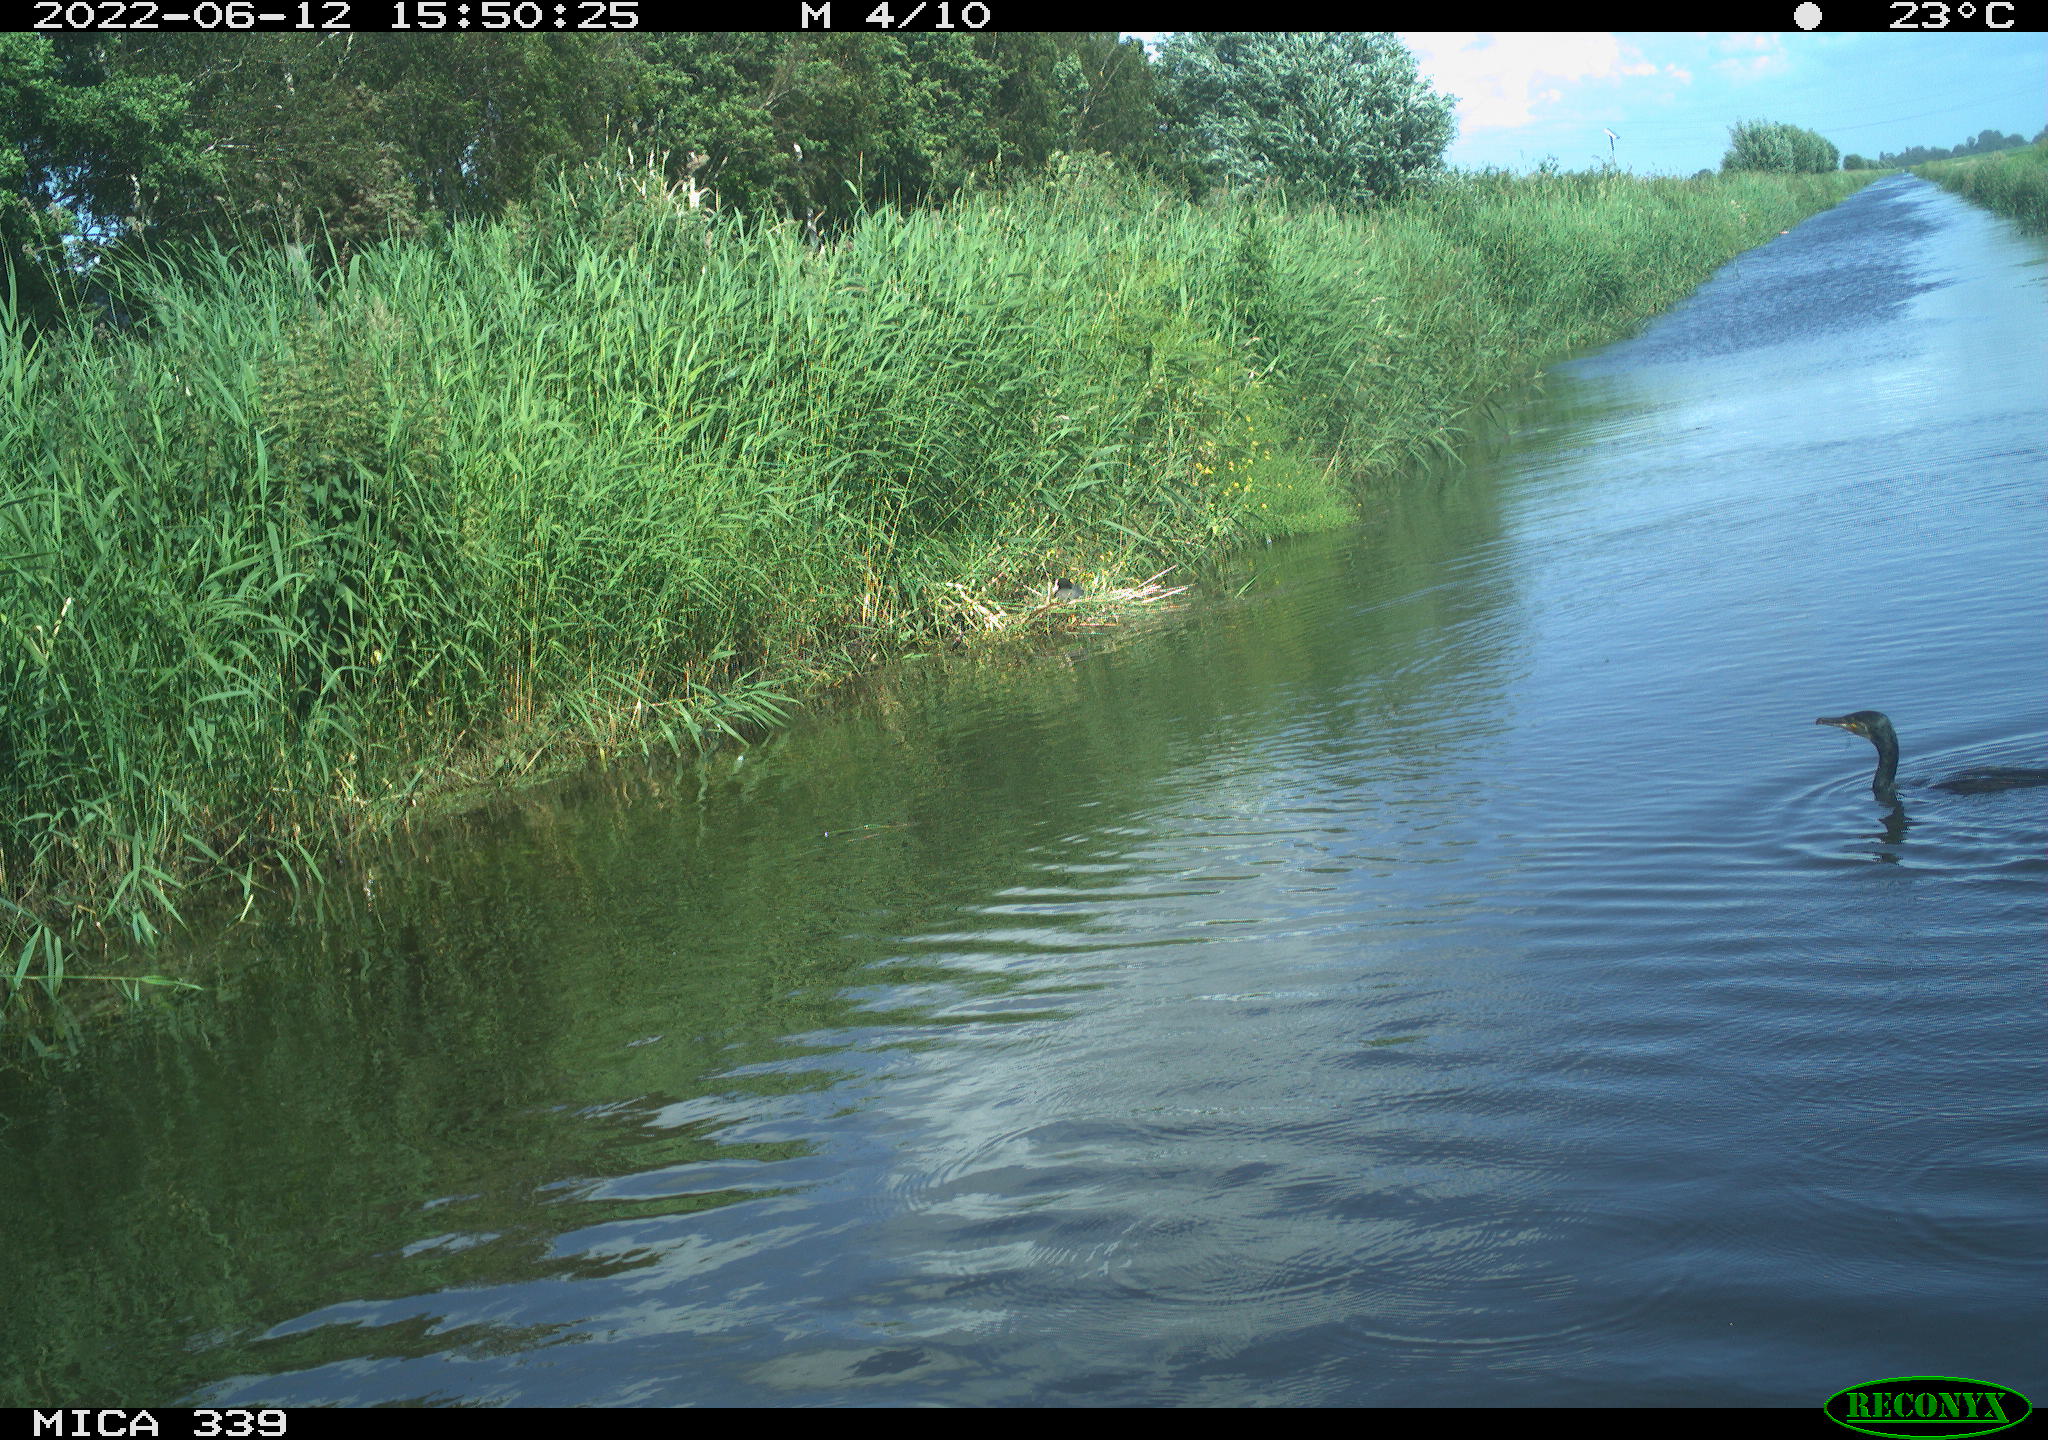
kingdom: Animalia
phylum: Chordata
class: Aves
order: Suliformes
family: Phalacrocoracidae
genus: Phalacrocorax
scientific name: Phalacrocorax carbo
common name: Great cormorant
